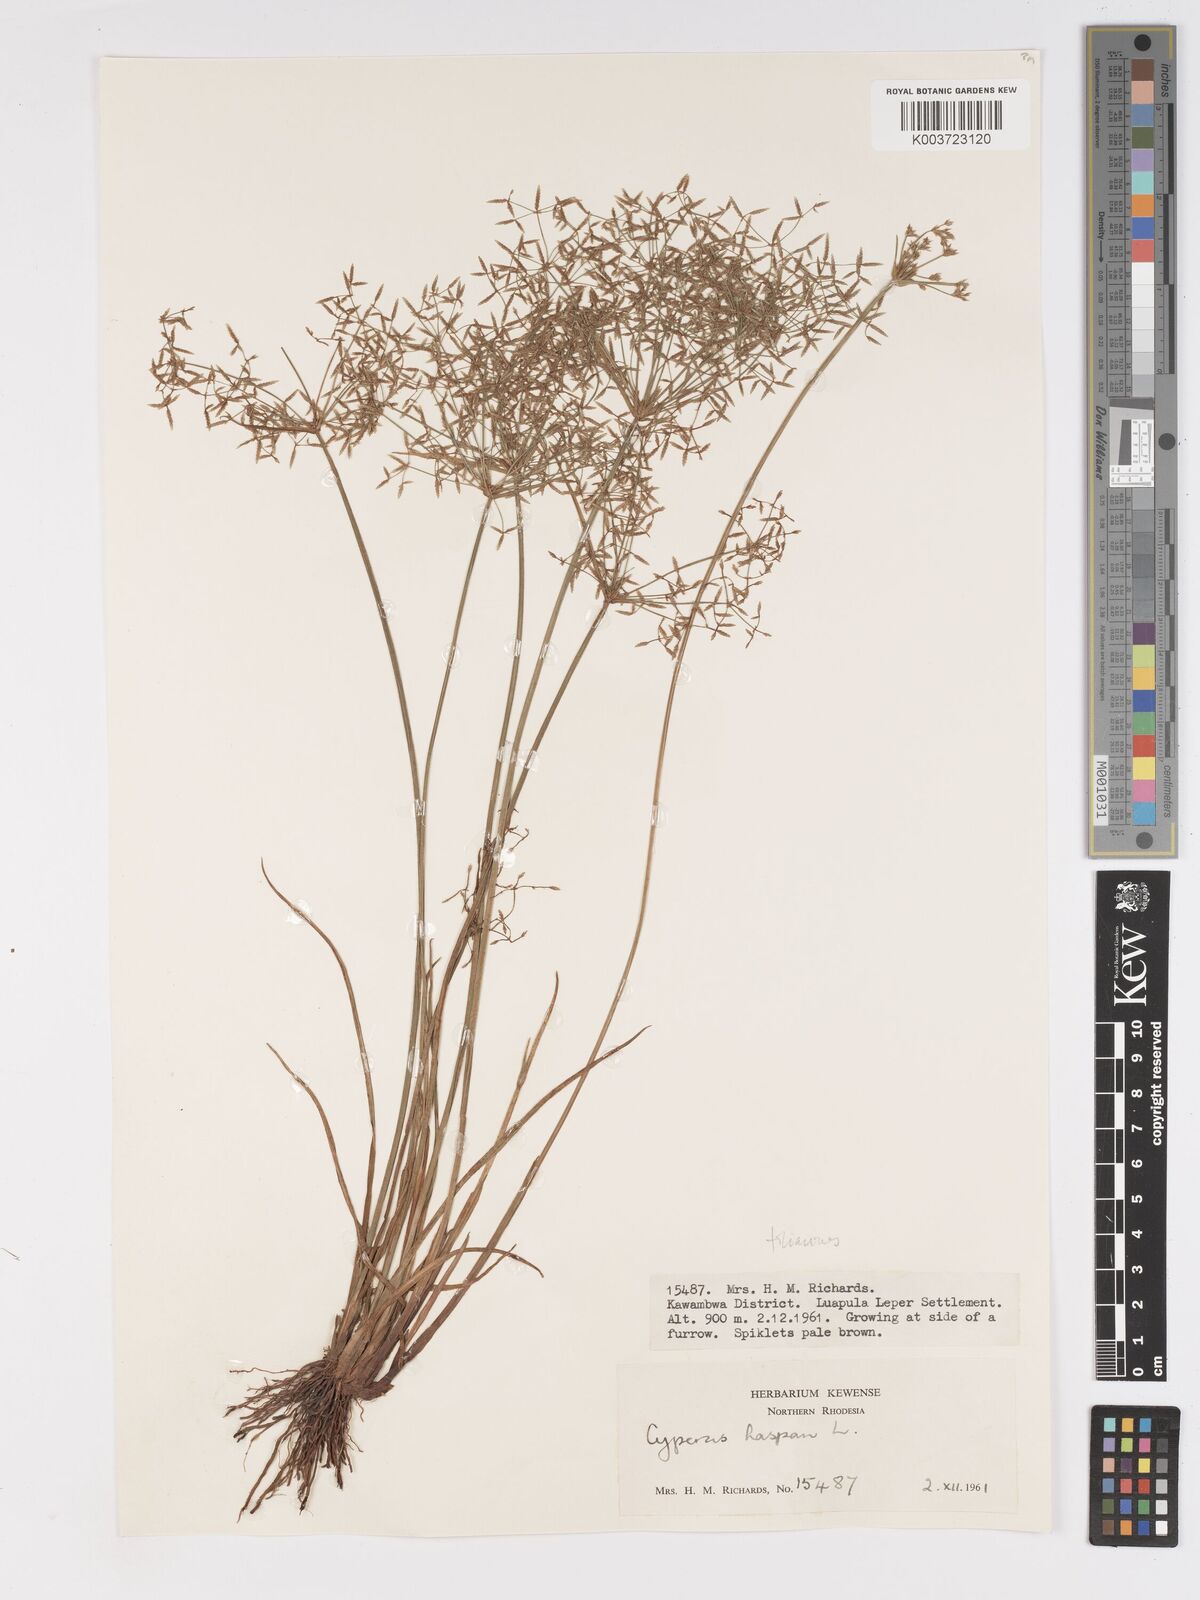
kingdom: Plantae
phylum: Tracheophyta
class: Liliopsida
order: Poales
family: Cyperaceae
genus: Cyperus
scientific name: Cyperus haspan
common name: Haspan flatsedge
